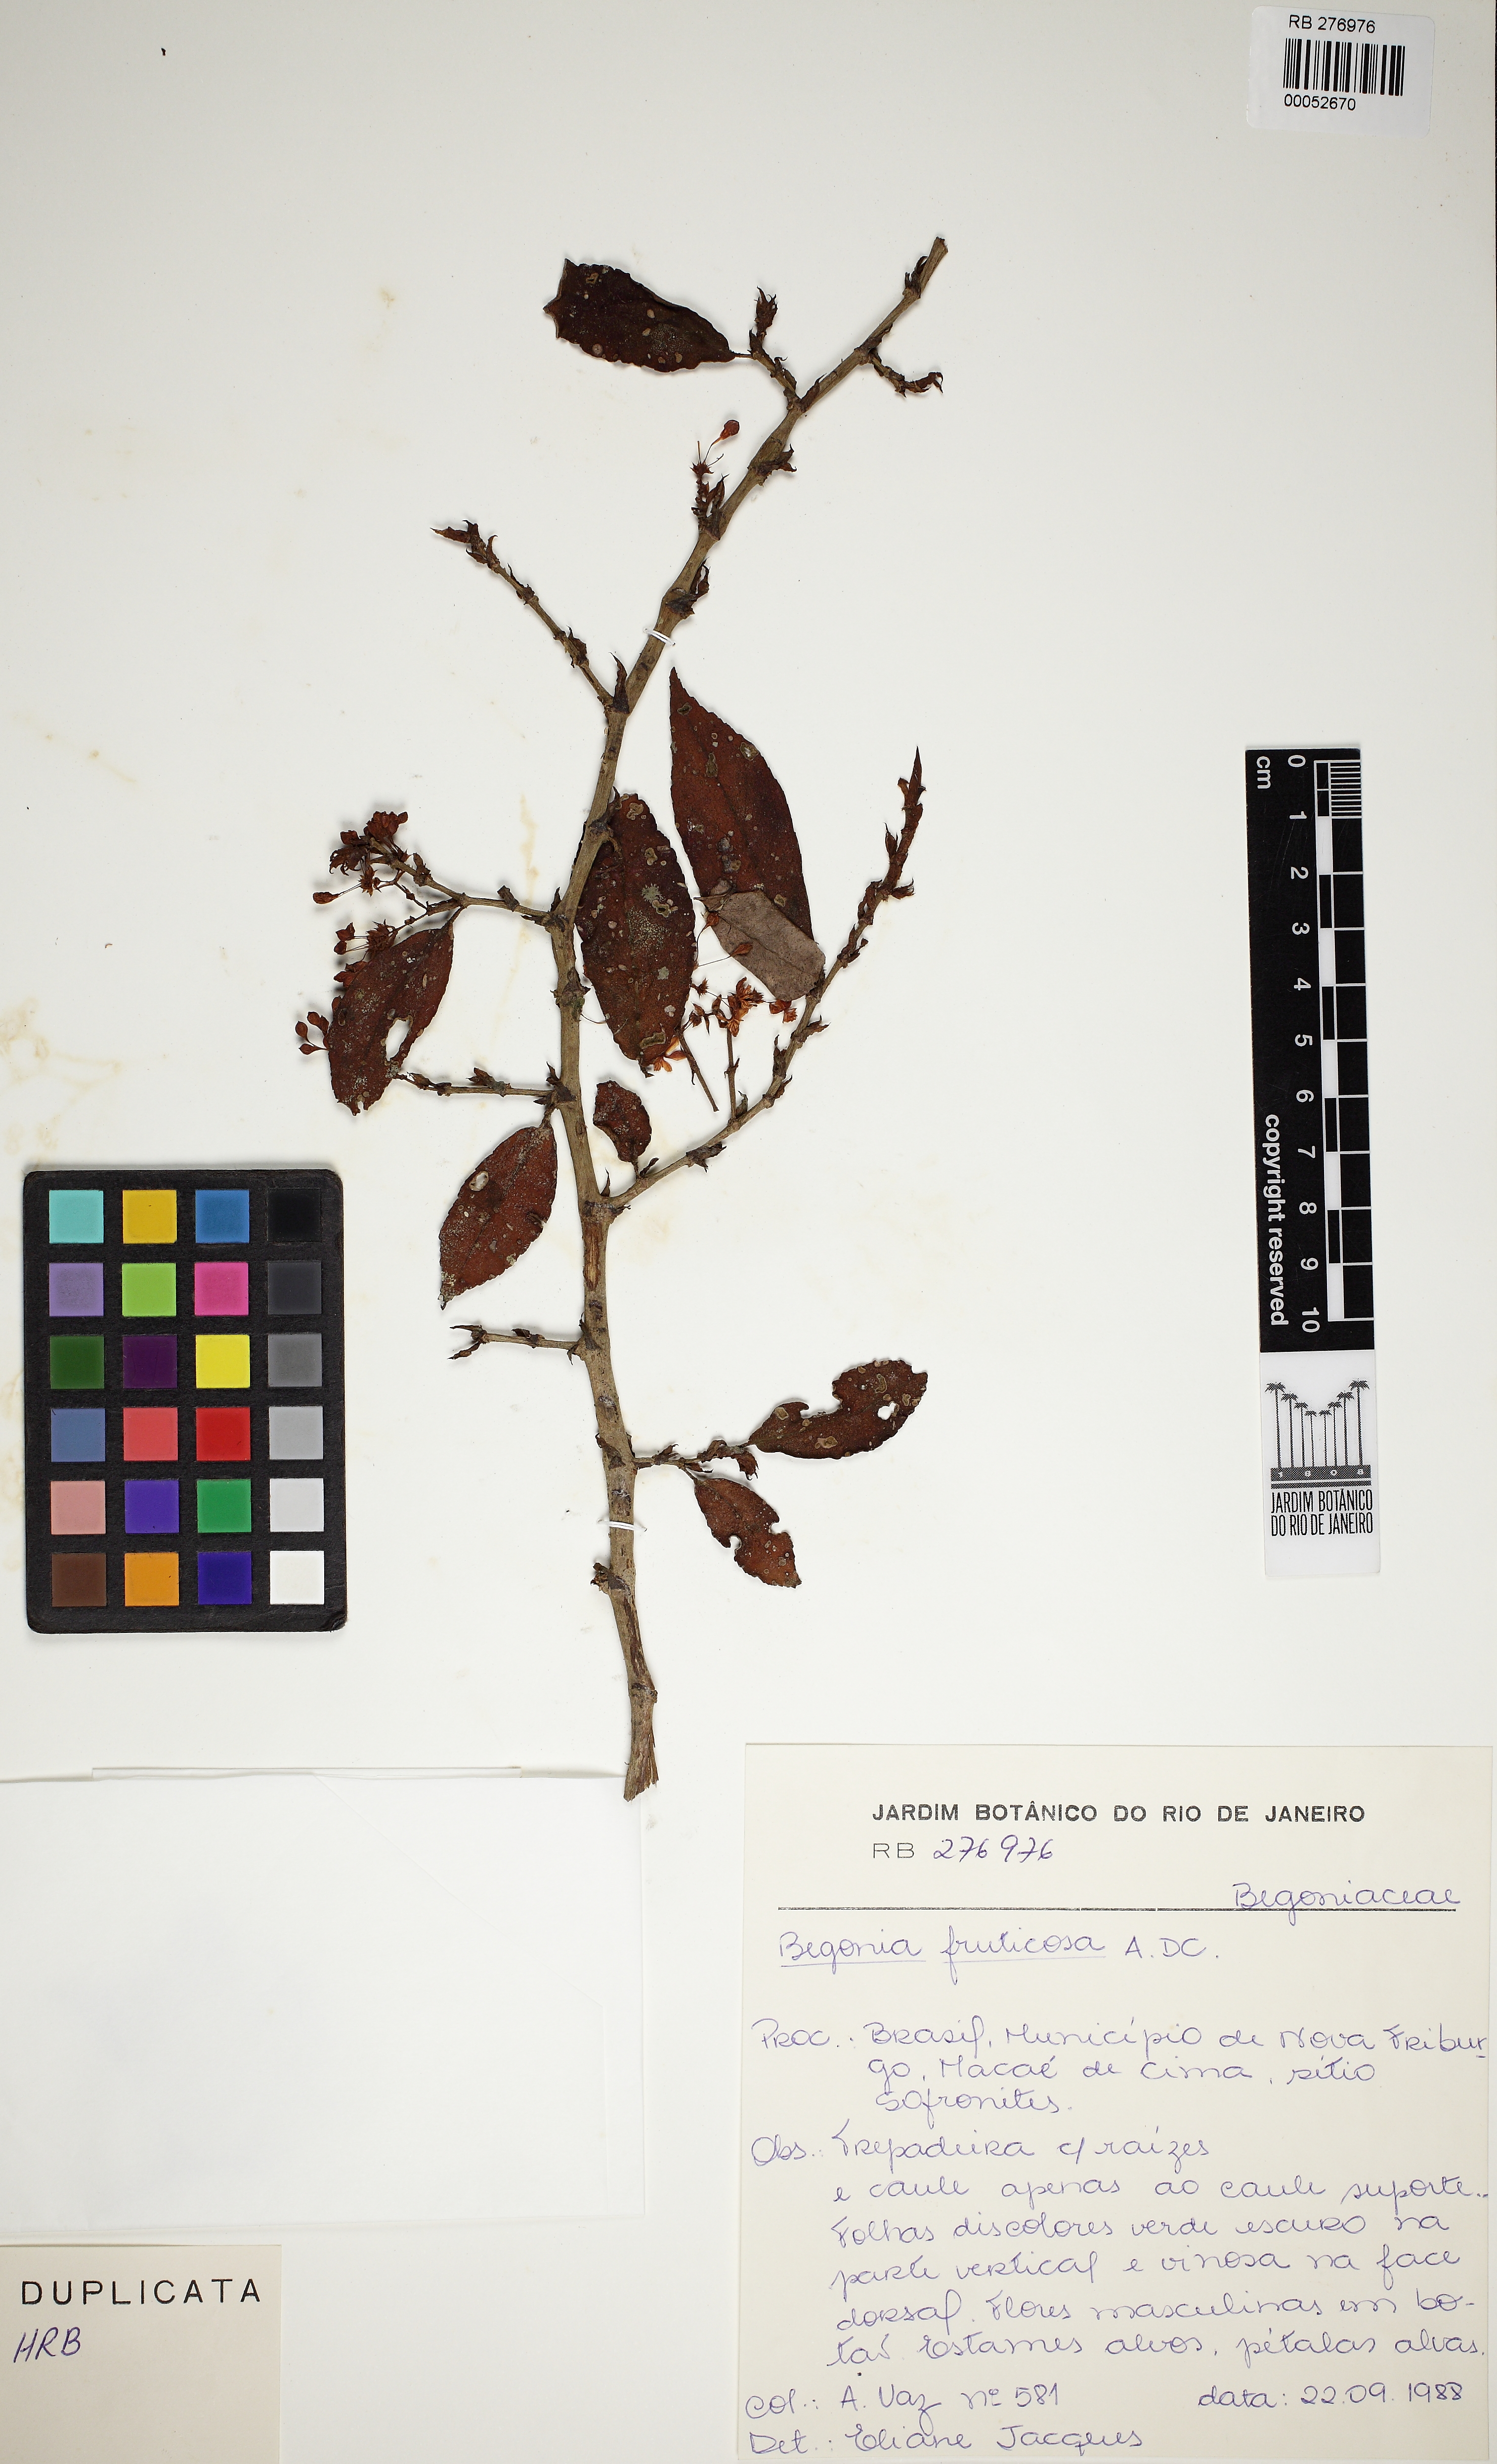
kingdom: Plantae
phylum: Tracheophyta
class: Magnoliopsida
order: Cucurbitales
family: Begoniaceae
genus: Begonia
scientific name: Begonia fruticosa
